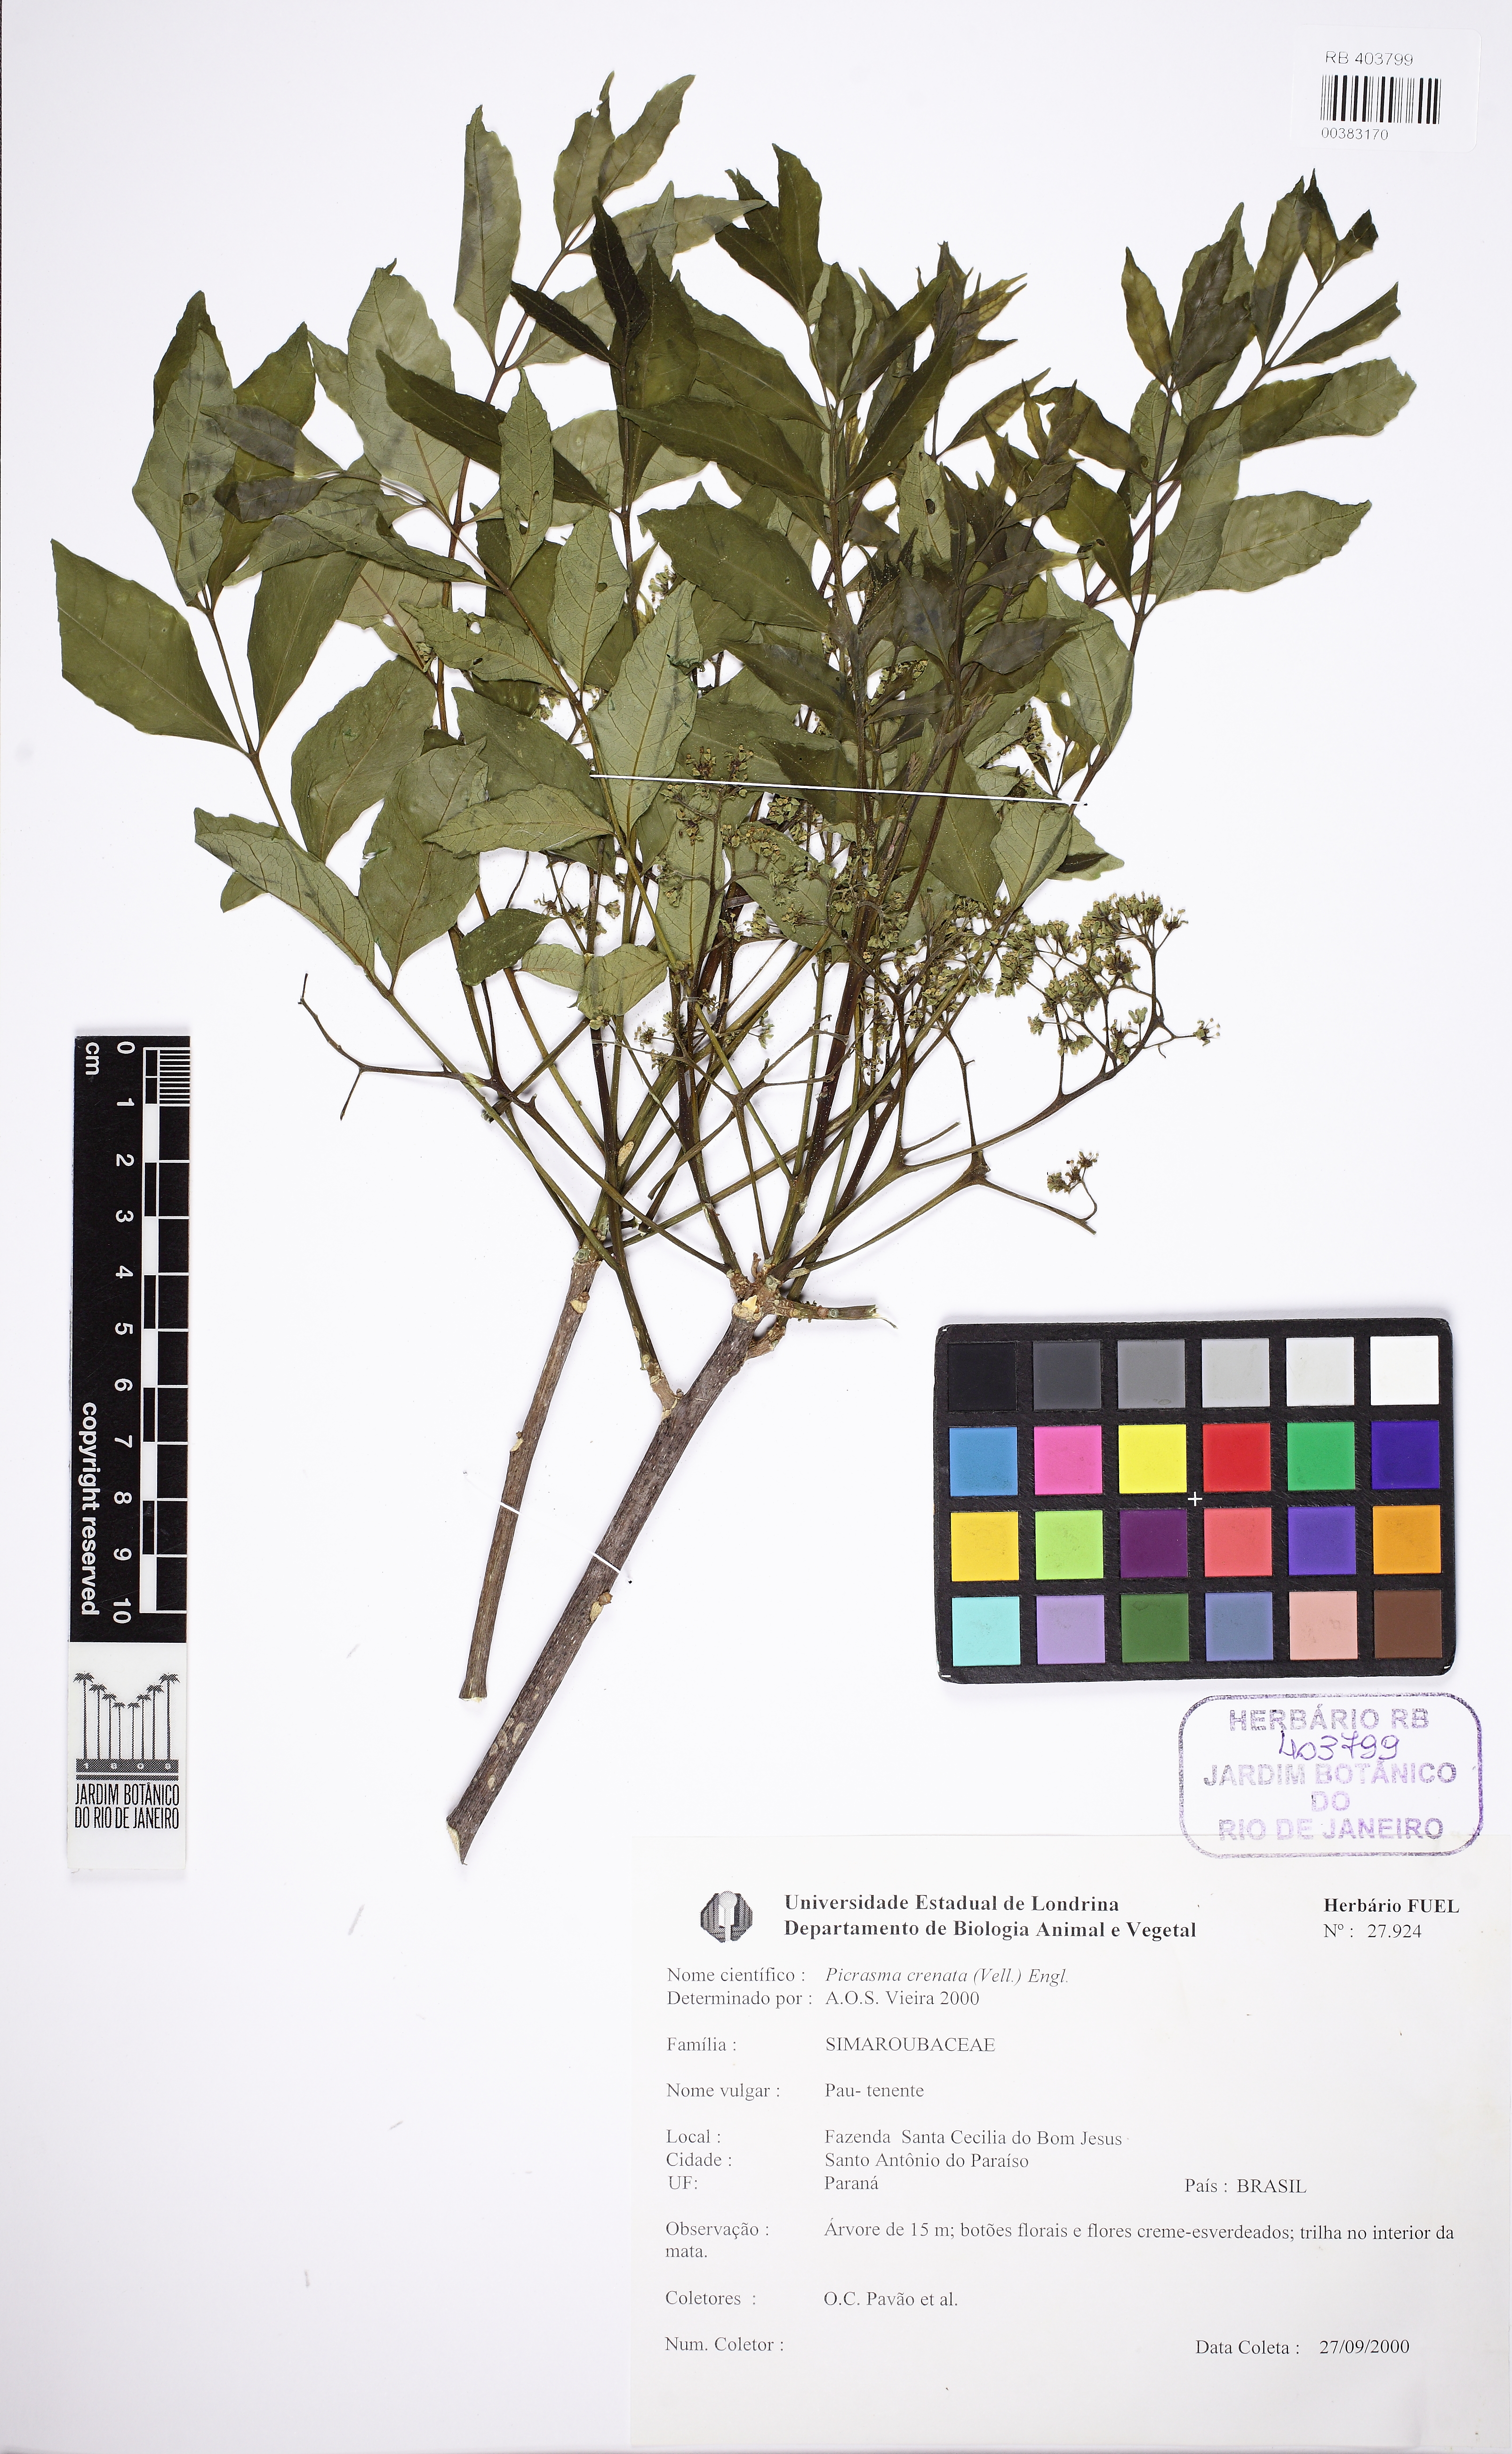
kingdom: Plantae
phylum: Tracheophyta
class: Magnoliopsida
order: Sapindales
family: Simaroubaceae
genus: Picrasma
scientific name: Picrasma crenata
